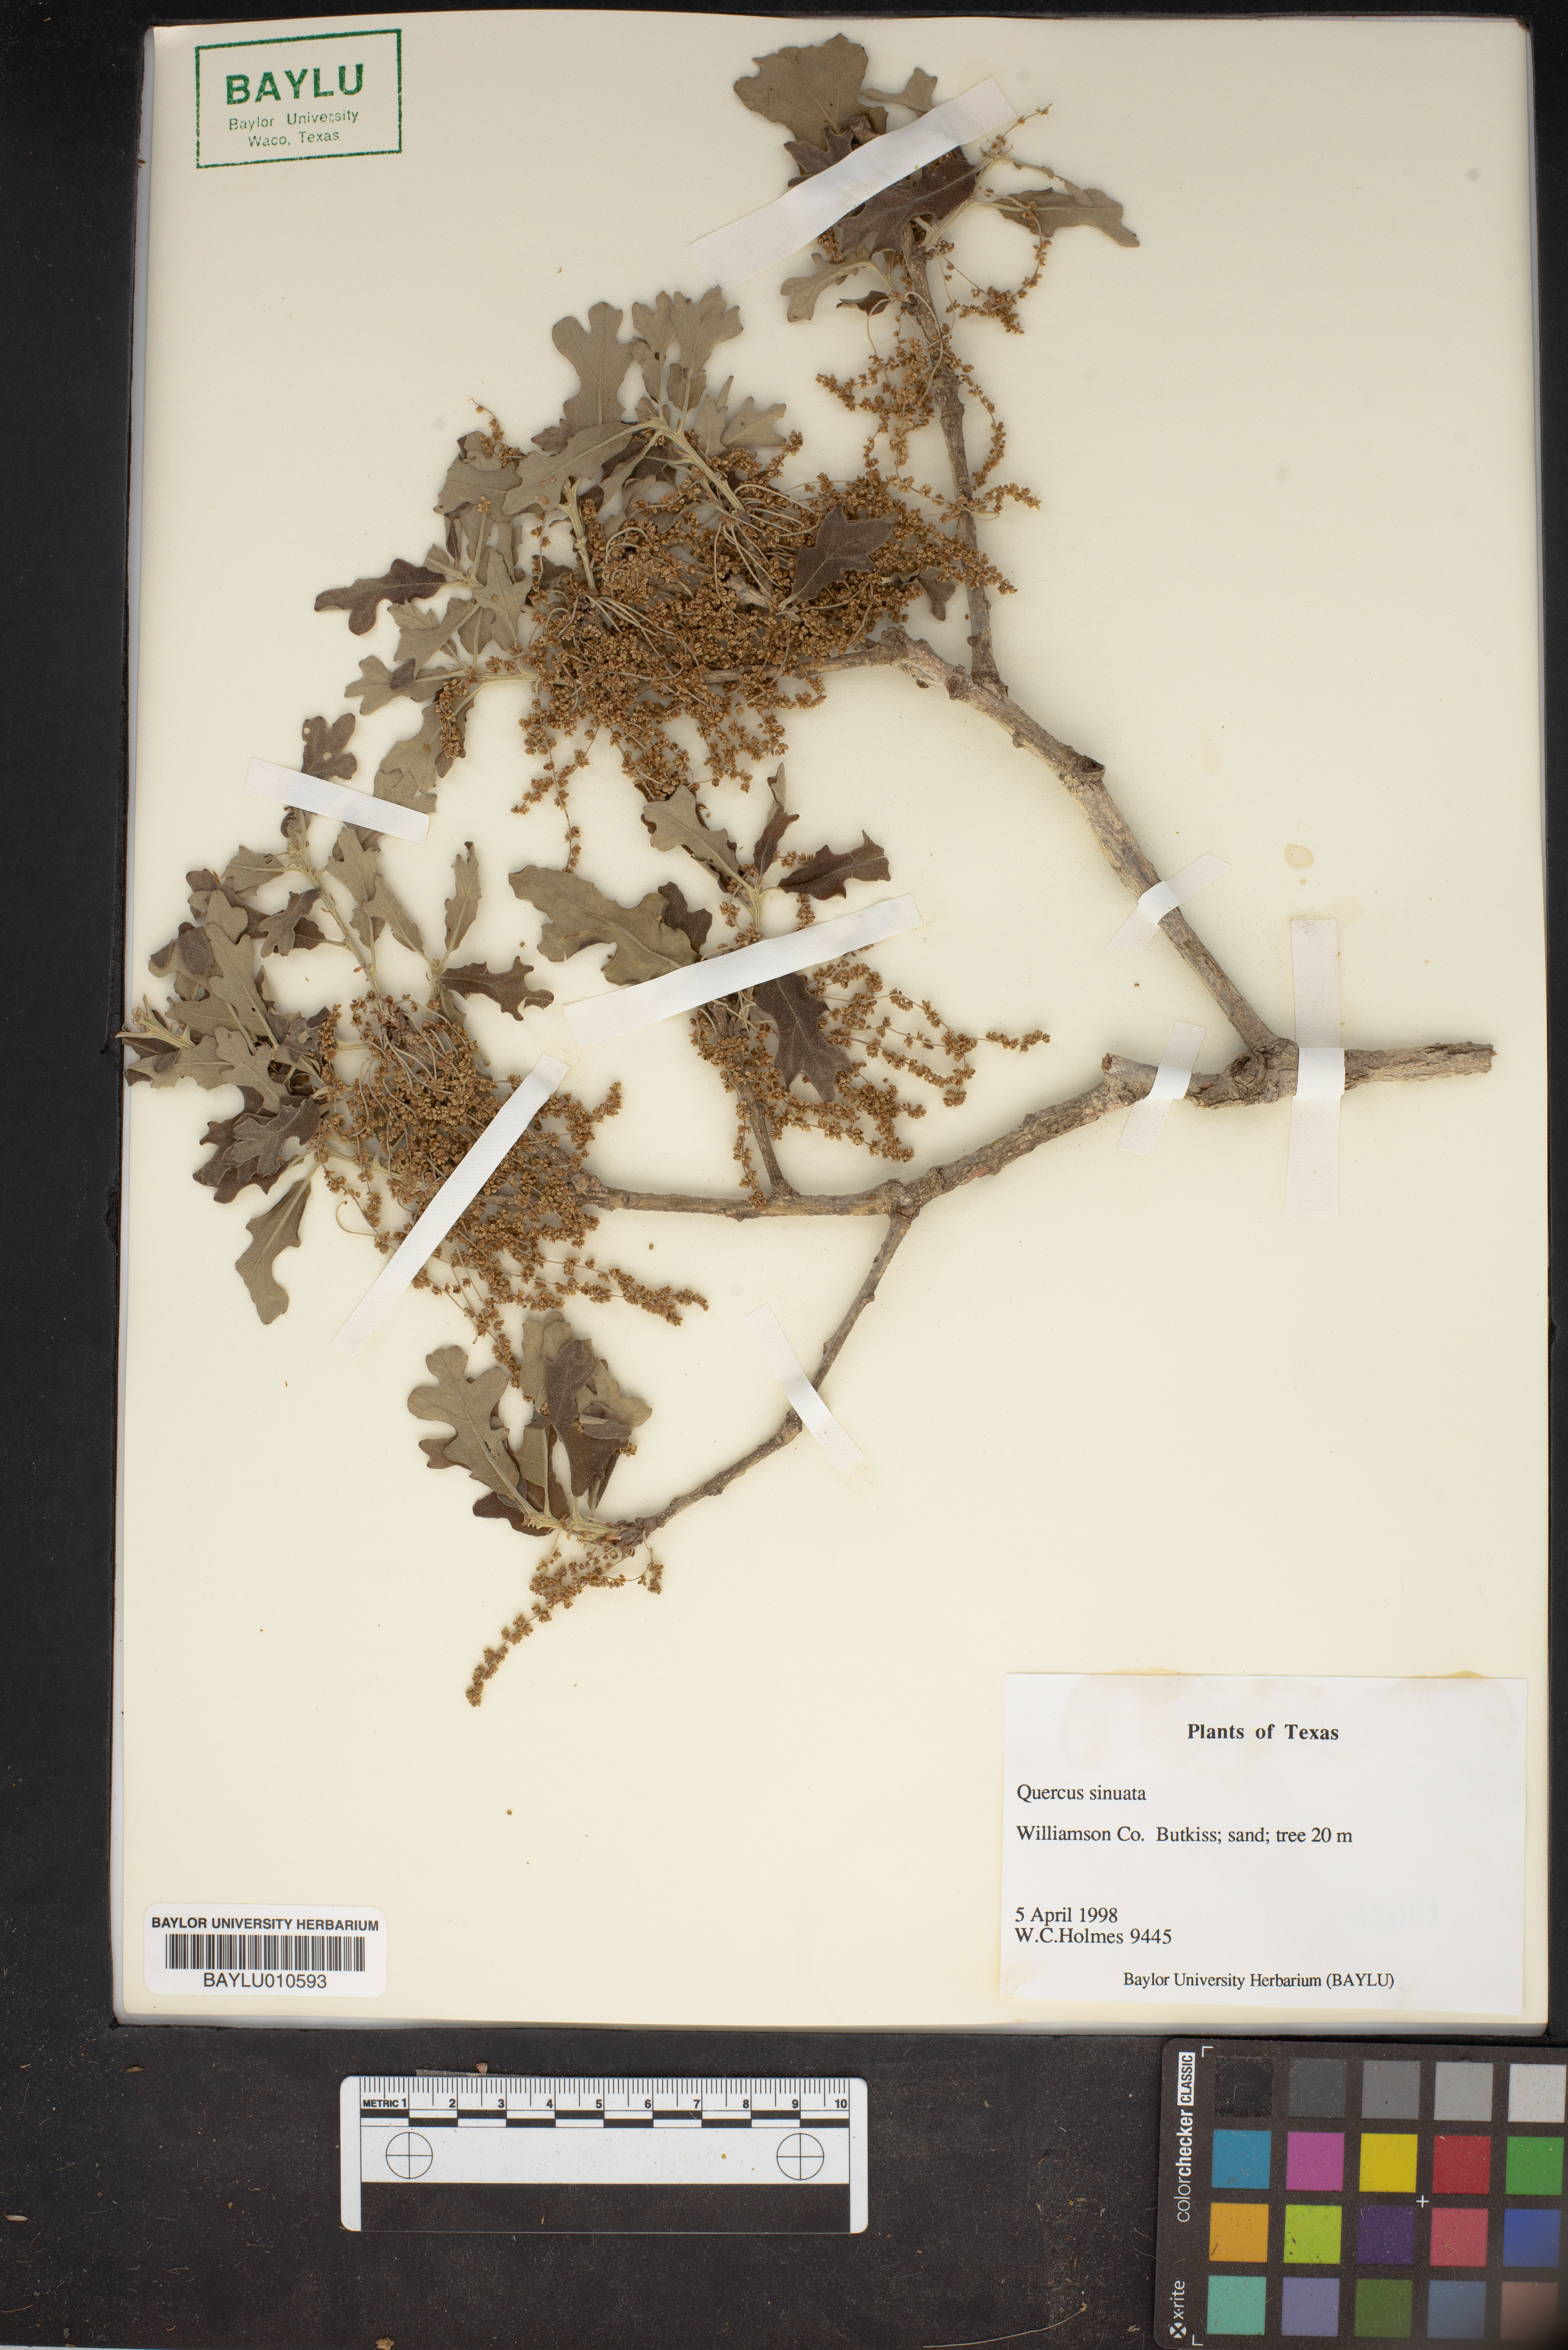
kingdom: Plantae
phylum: Tracheophyta
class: Magnoliopsida
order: Fagales
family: Fagaceae
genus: Quercus
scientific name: Quercus sinuata
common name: Durand oak
